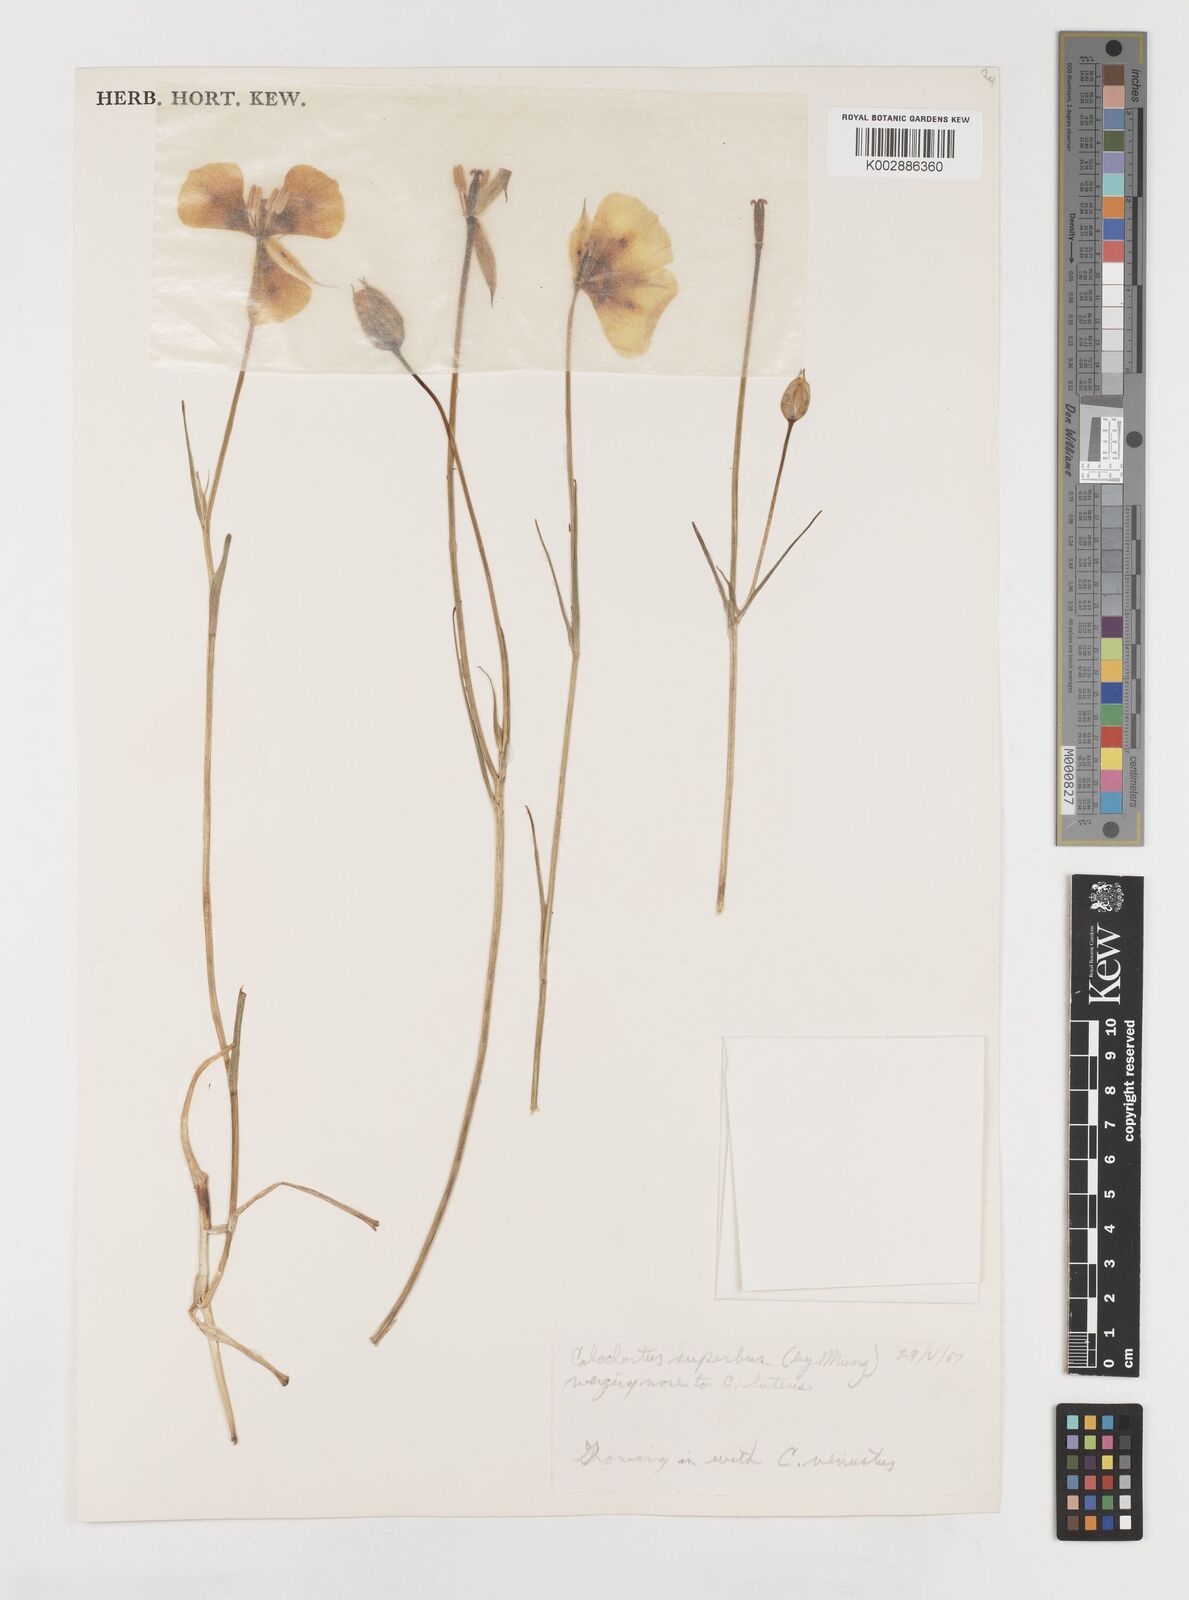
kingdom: Plantae
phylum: Tracheophyta
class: Liliopsida
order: Liliales
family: Liliaceae
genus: Calochortus
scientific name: Calochortus superbus
